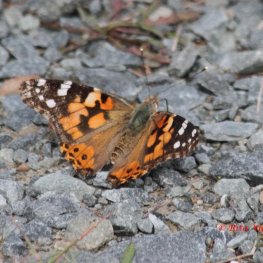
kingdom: Animalia
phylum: Arthropoda
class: Insecta
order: Lepidoptera
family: Nymphalidae
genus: Vanessa
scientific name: Vanessa cardui
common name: Painted Lady
